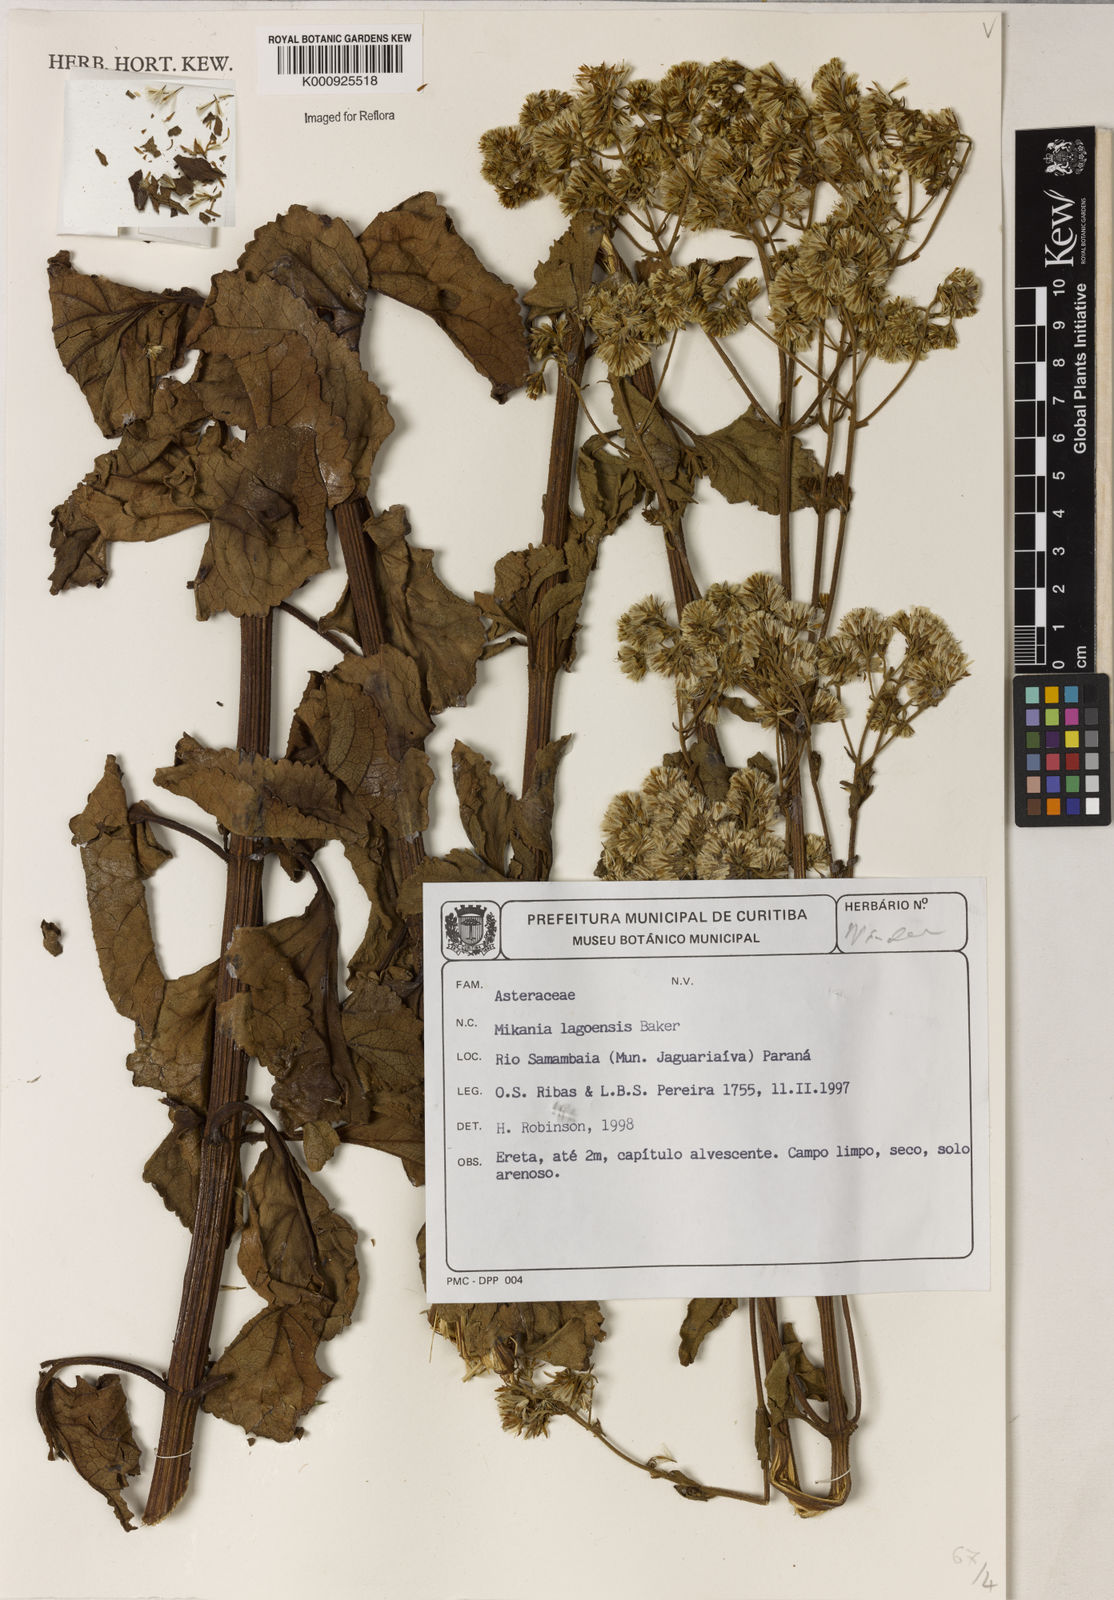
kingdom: Plantae
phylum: Tracheophyta
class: Magnoliopsida
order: Asterales
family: Asteraceae
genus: Mikania
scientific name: Mikania thapsoides
